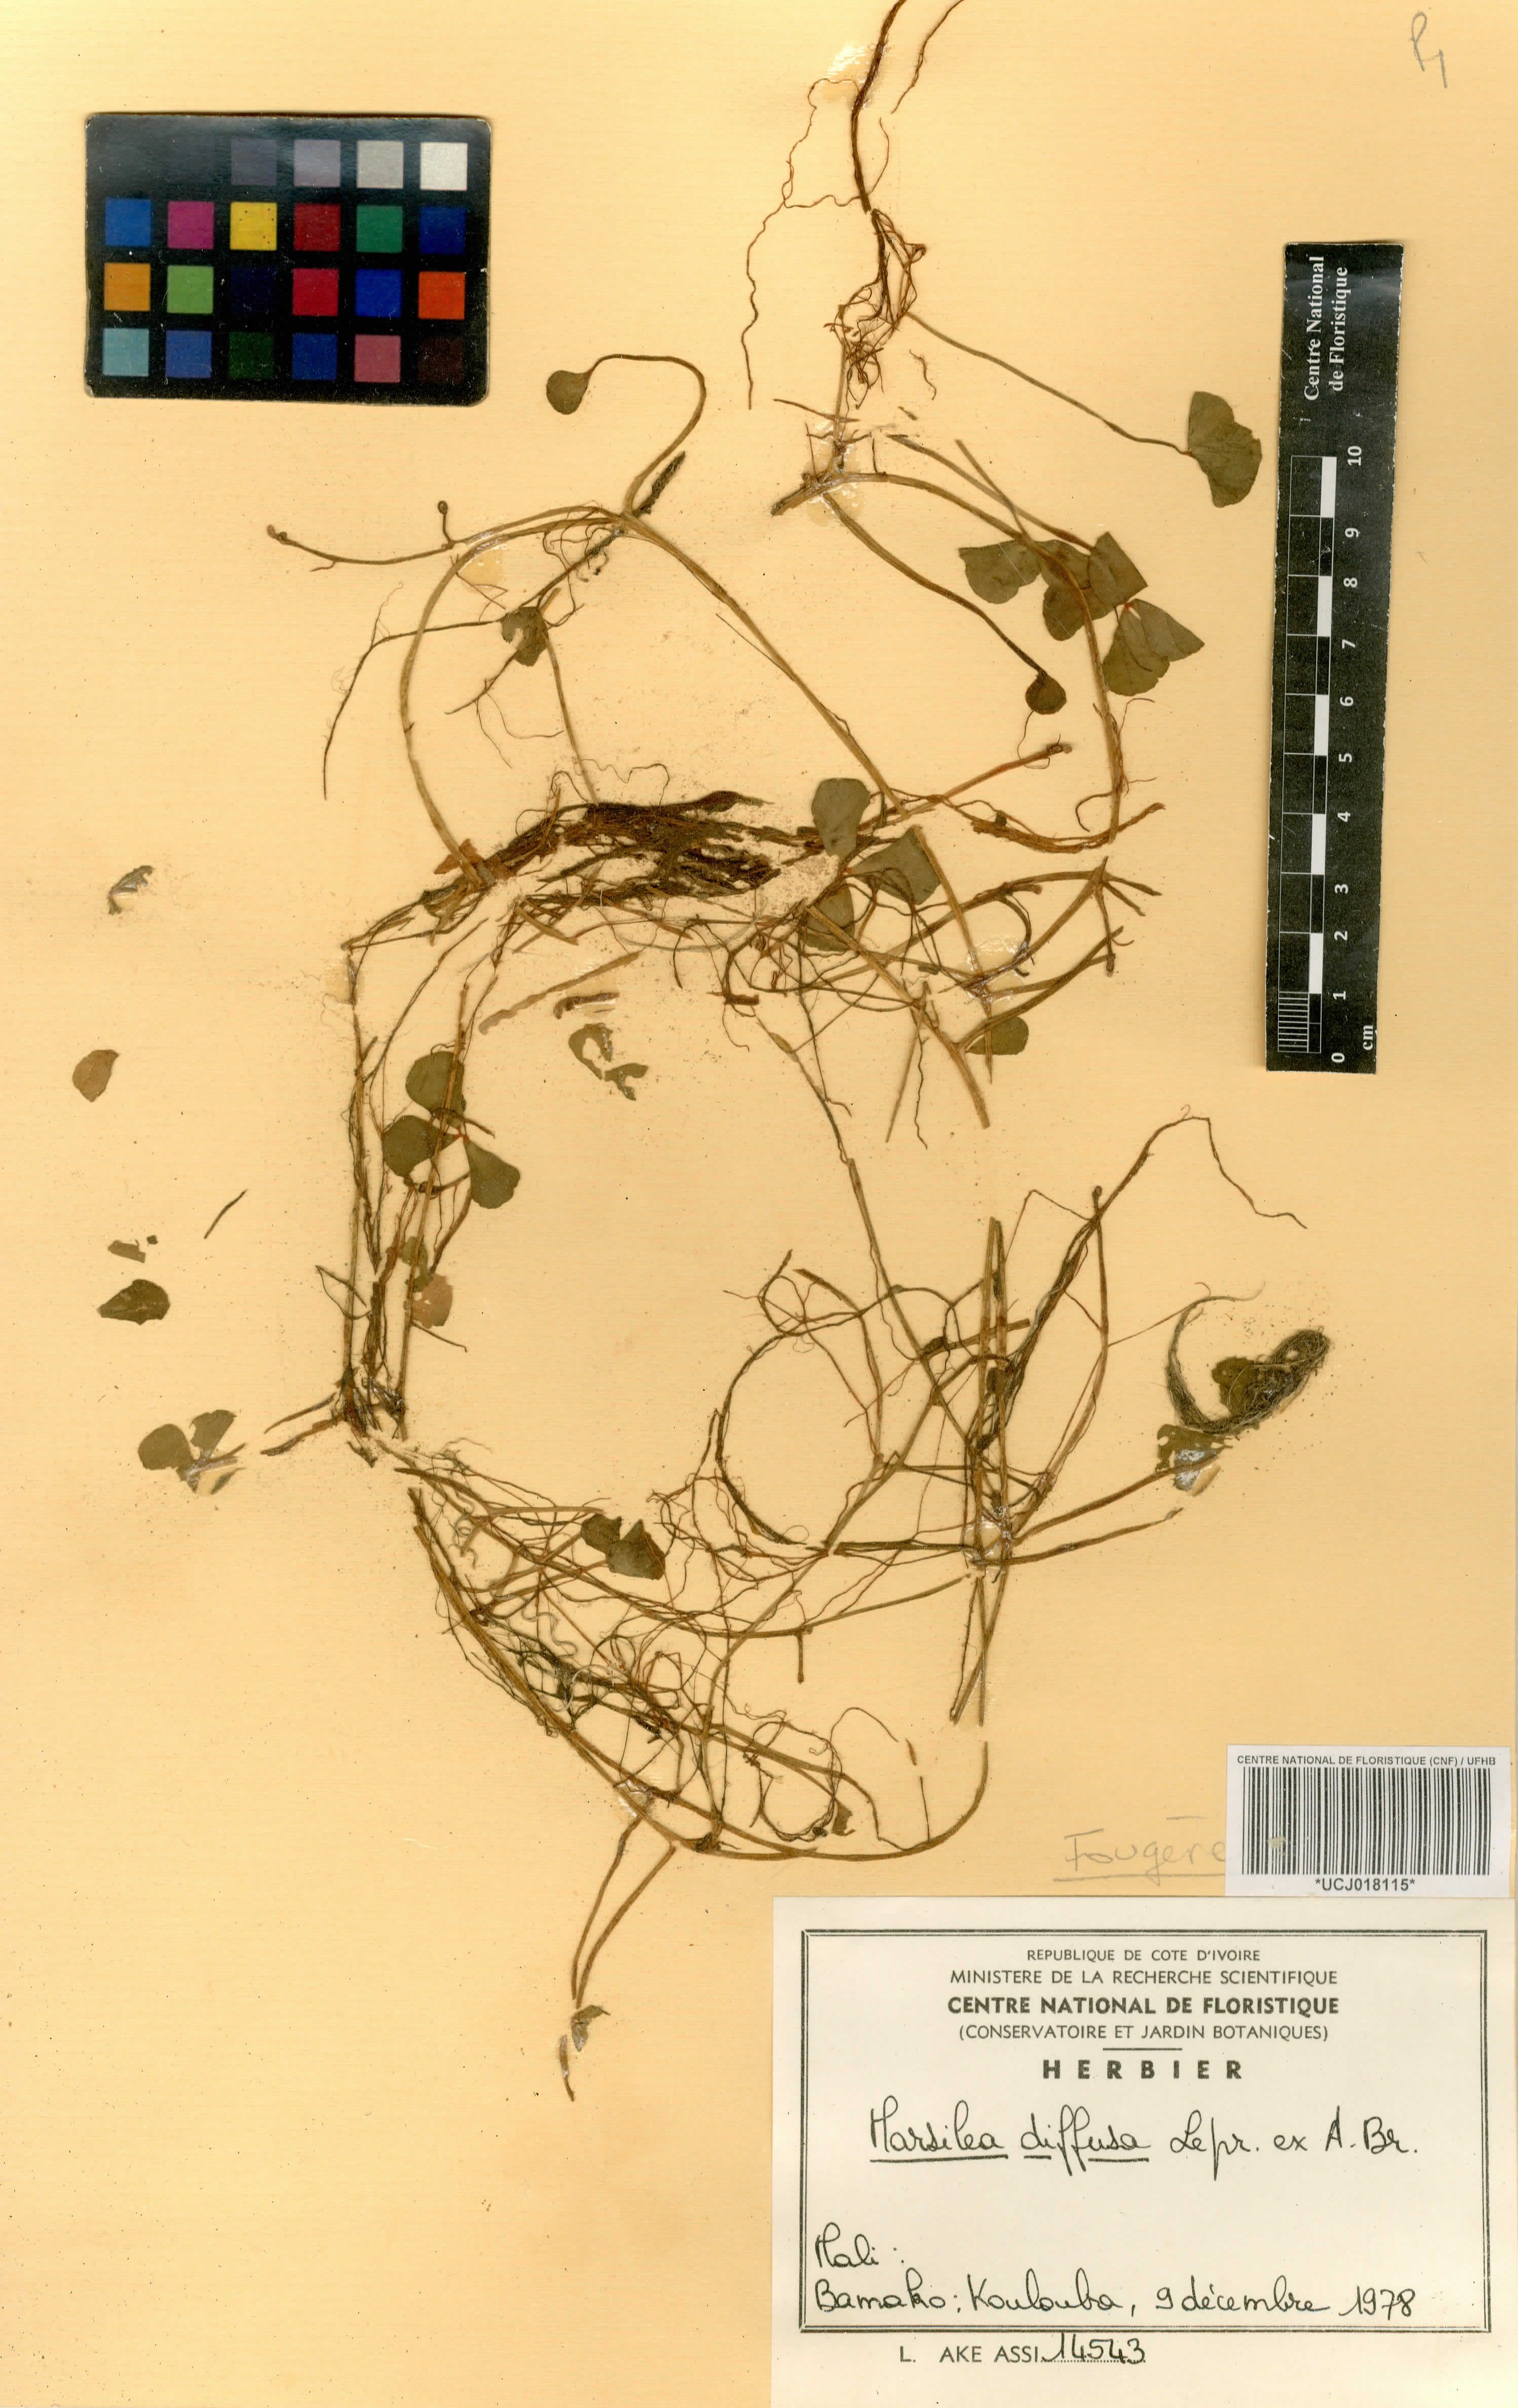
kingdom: Plantae
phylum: Tracheophyta
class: Polypodiopsida
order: Salviniales
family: Marsileaceae
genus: Marsilea
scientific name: Marsilea minuta
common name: Dwarf waterclover
